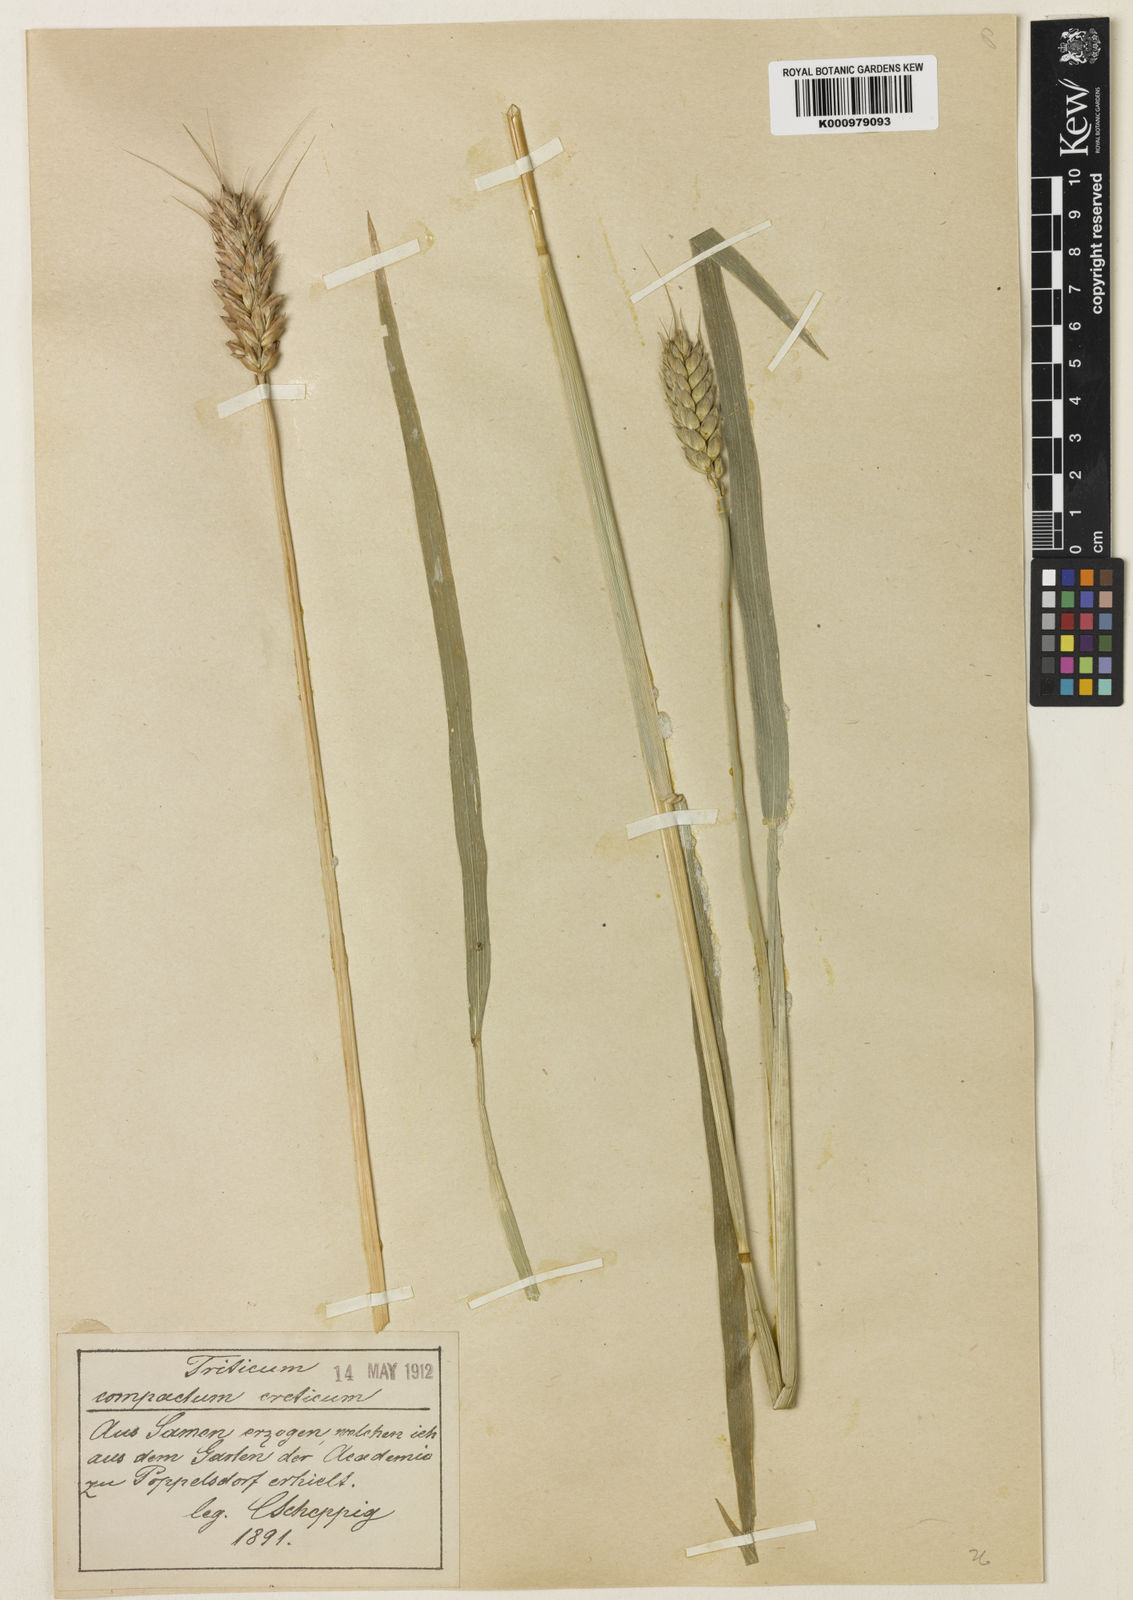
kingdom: Plantae
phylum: Tracheophyta
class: Liliopsida
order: Poales
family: Poaceae
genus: Triticum
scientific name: Triticum aestivum
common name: Common wheat
